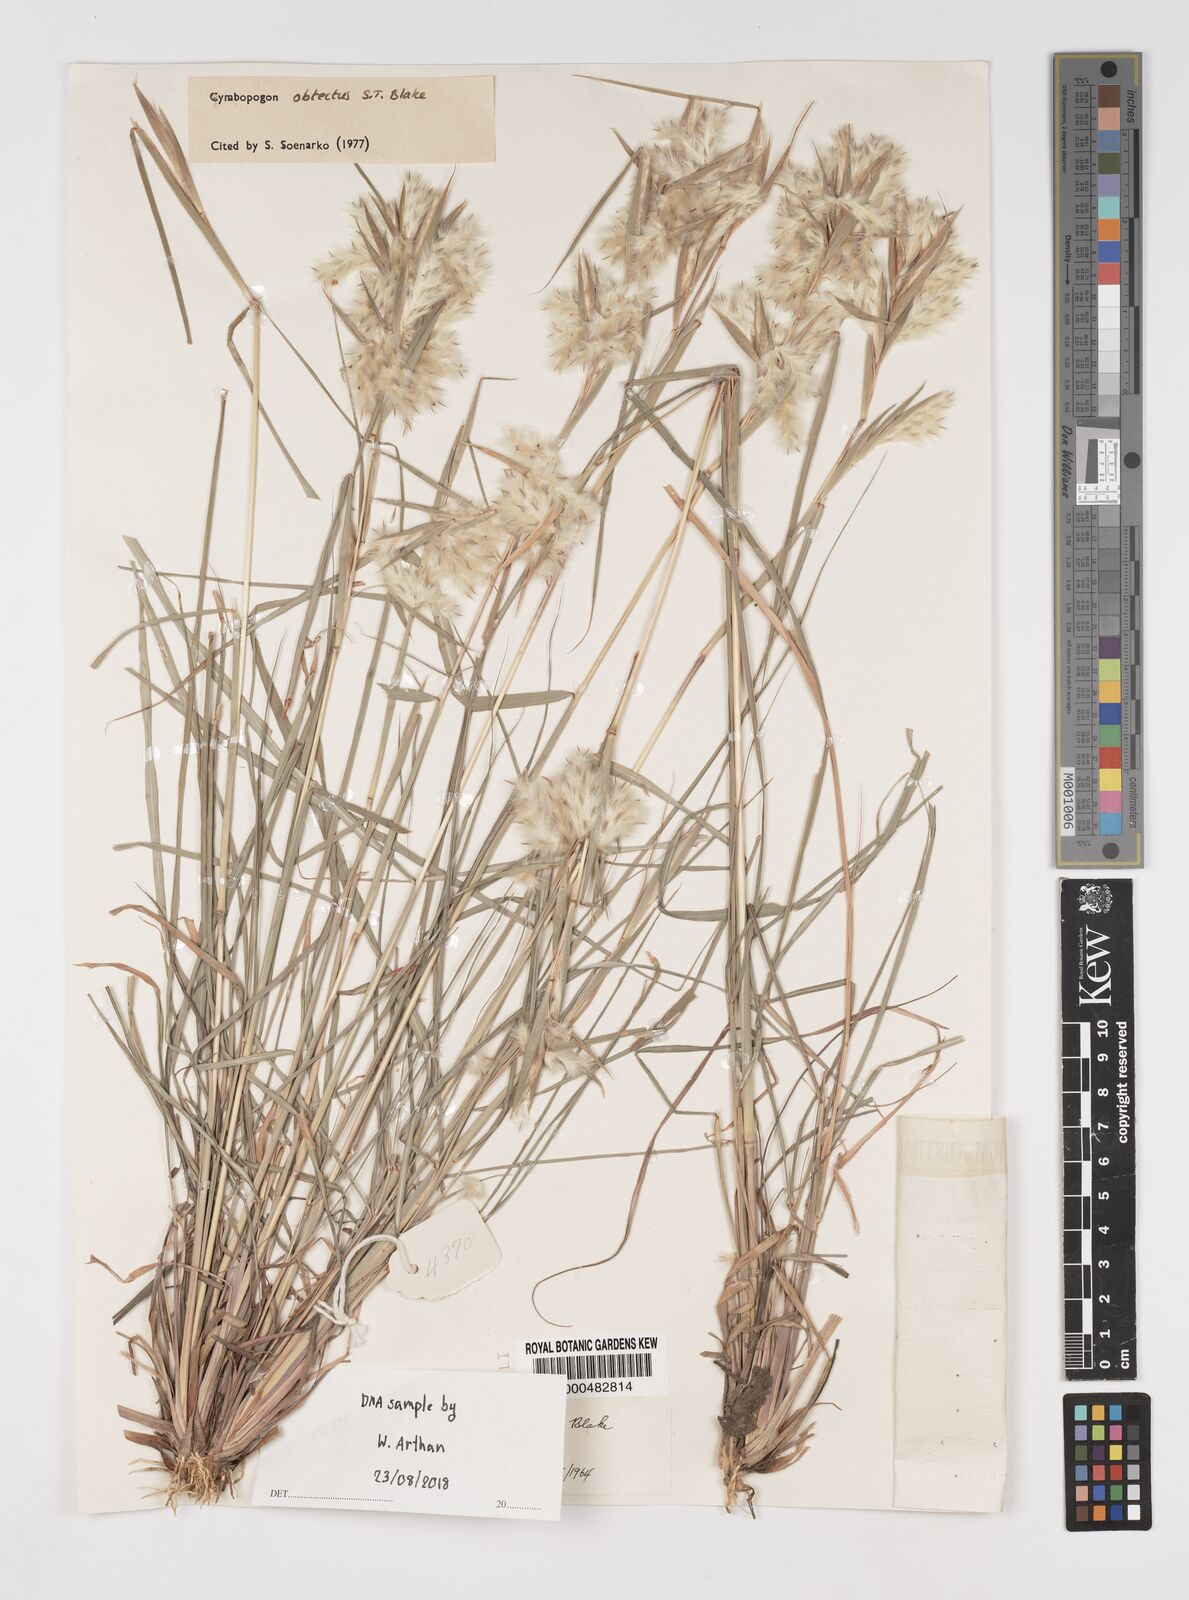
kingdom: Plantae
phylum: Tracheophyta
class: Liliopsida
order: Poales
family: Poaceae
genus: Cymbopogon
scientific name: Cymbopogon obtectus
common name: Silky heads
